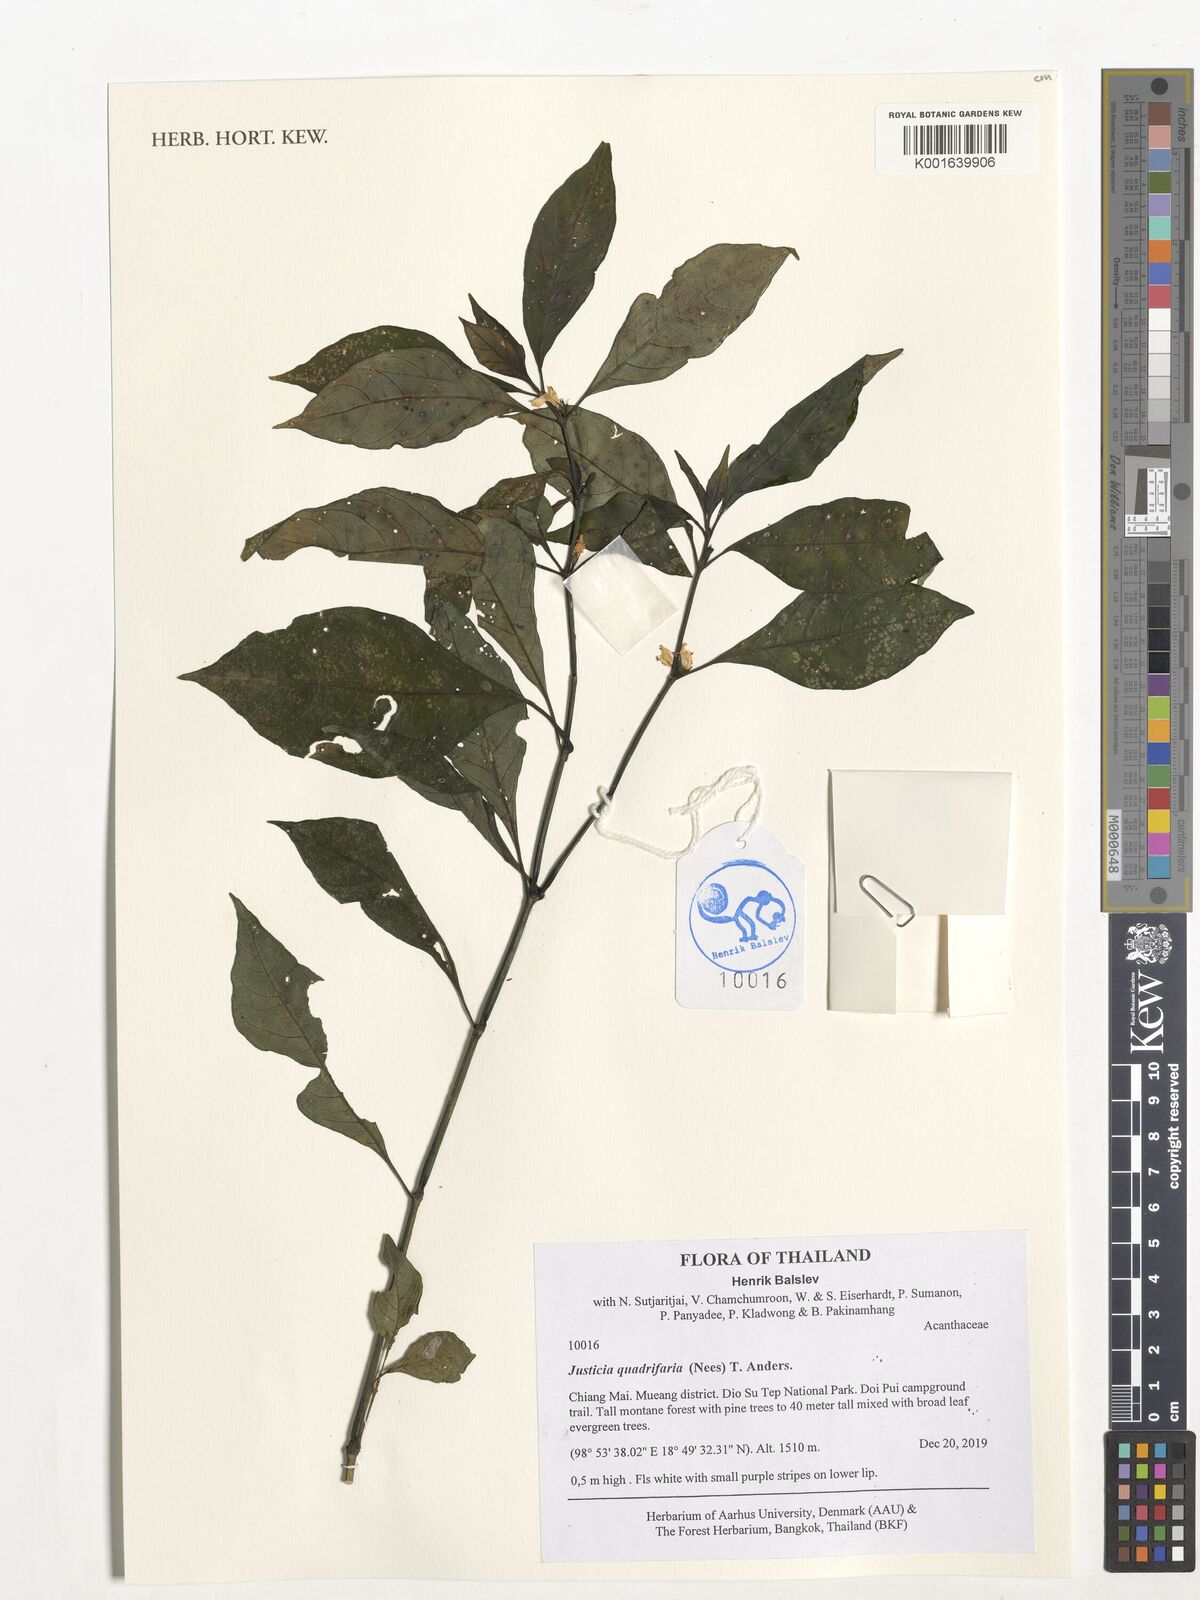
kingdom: Plantae
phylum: Tracheophyta
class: Magnoliopsida
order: Lamiales
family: Acanthaceae
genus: Justicia
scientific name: Justicia quadrifaria
